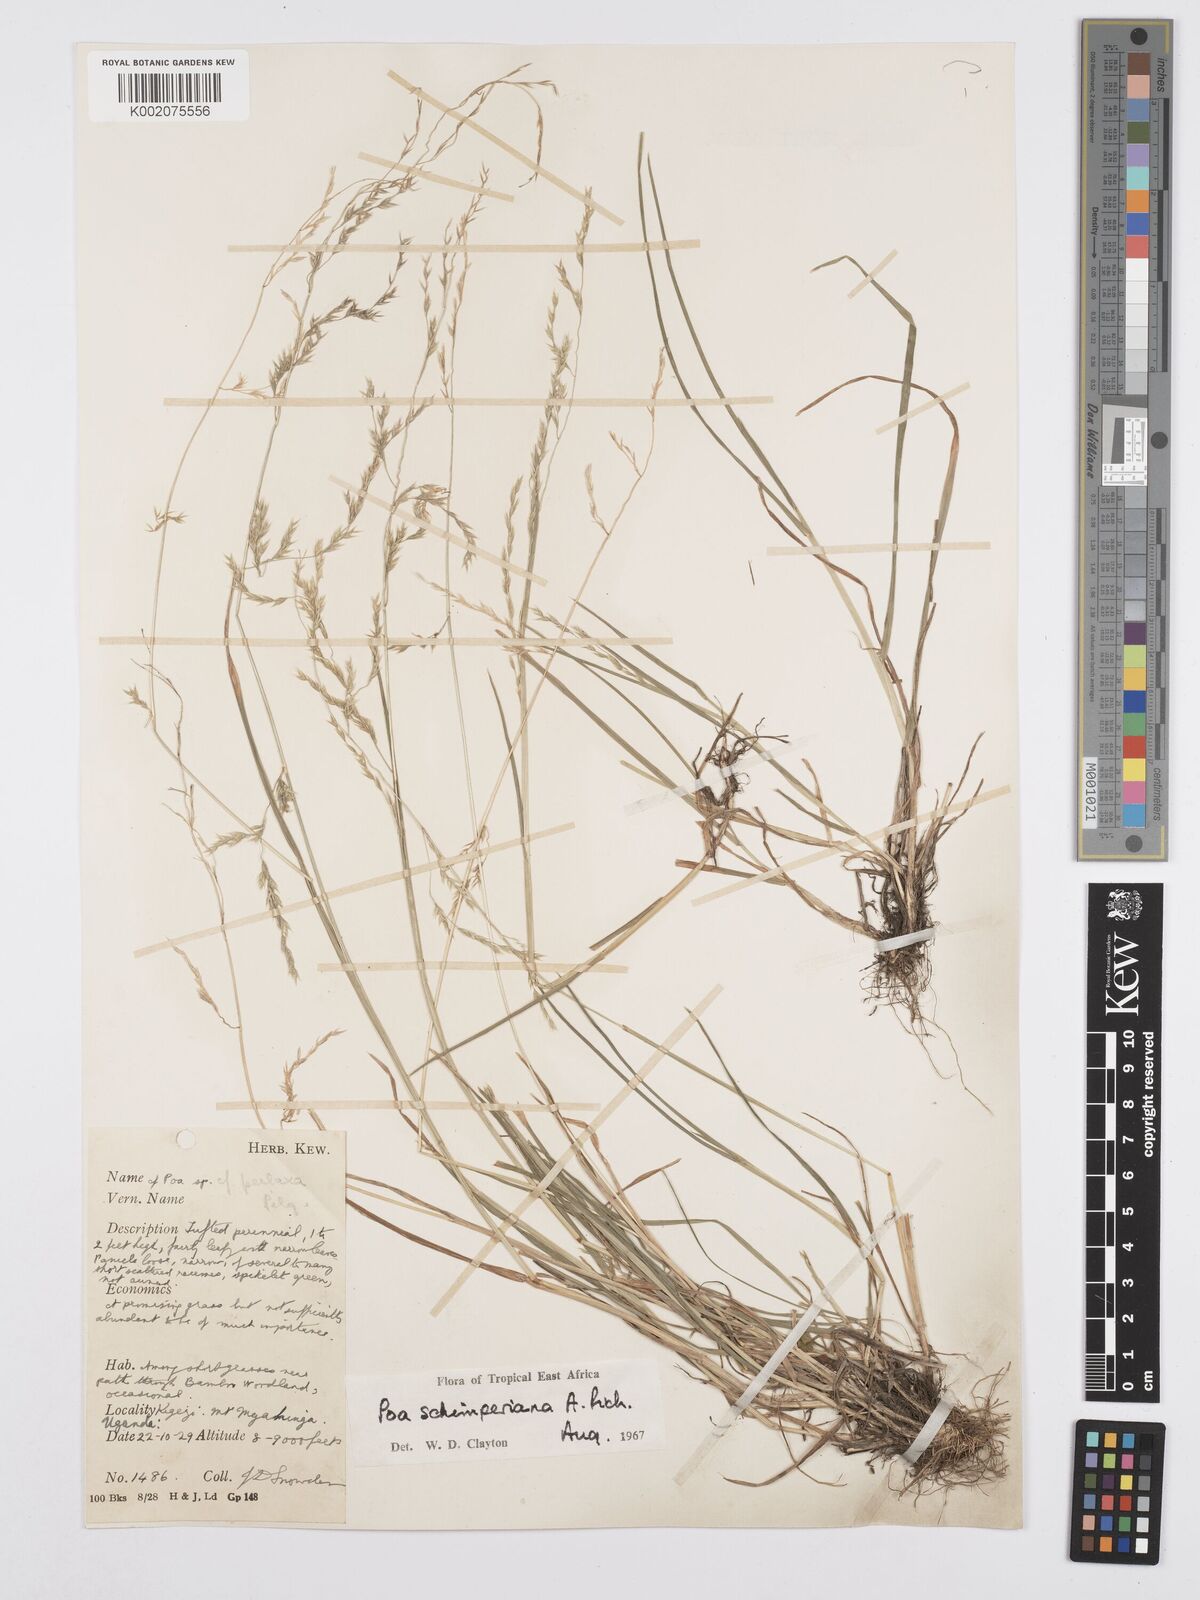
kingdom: Plantae
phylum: Tracheophyta
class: Liliopsida
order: Poales
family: Poaceae
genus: Poa
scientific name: Poa schimperiana
